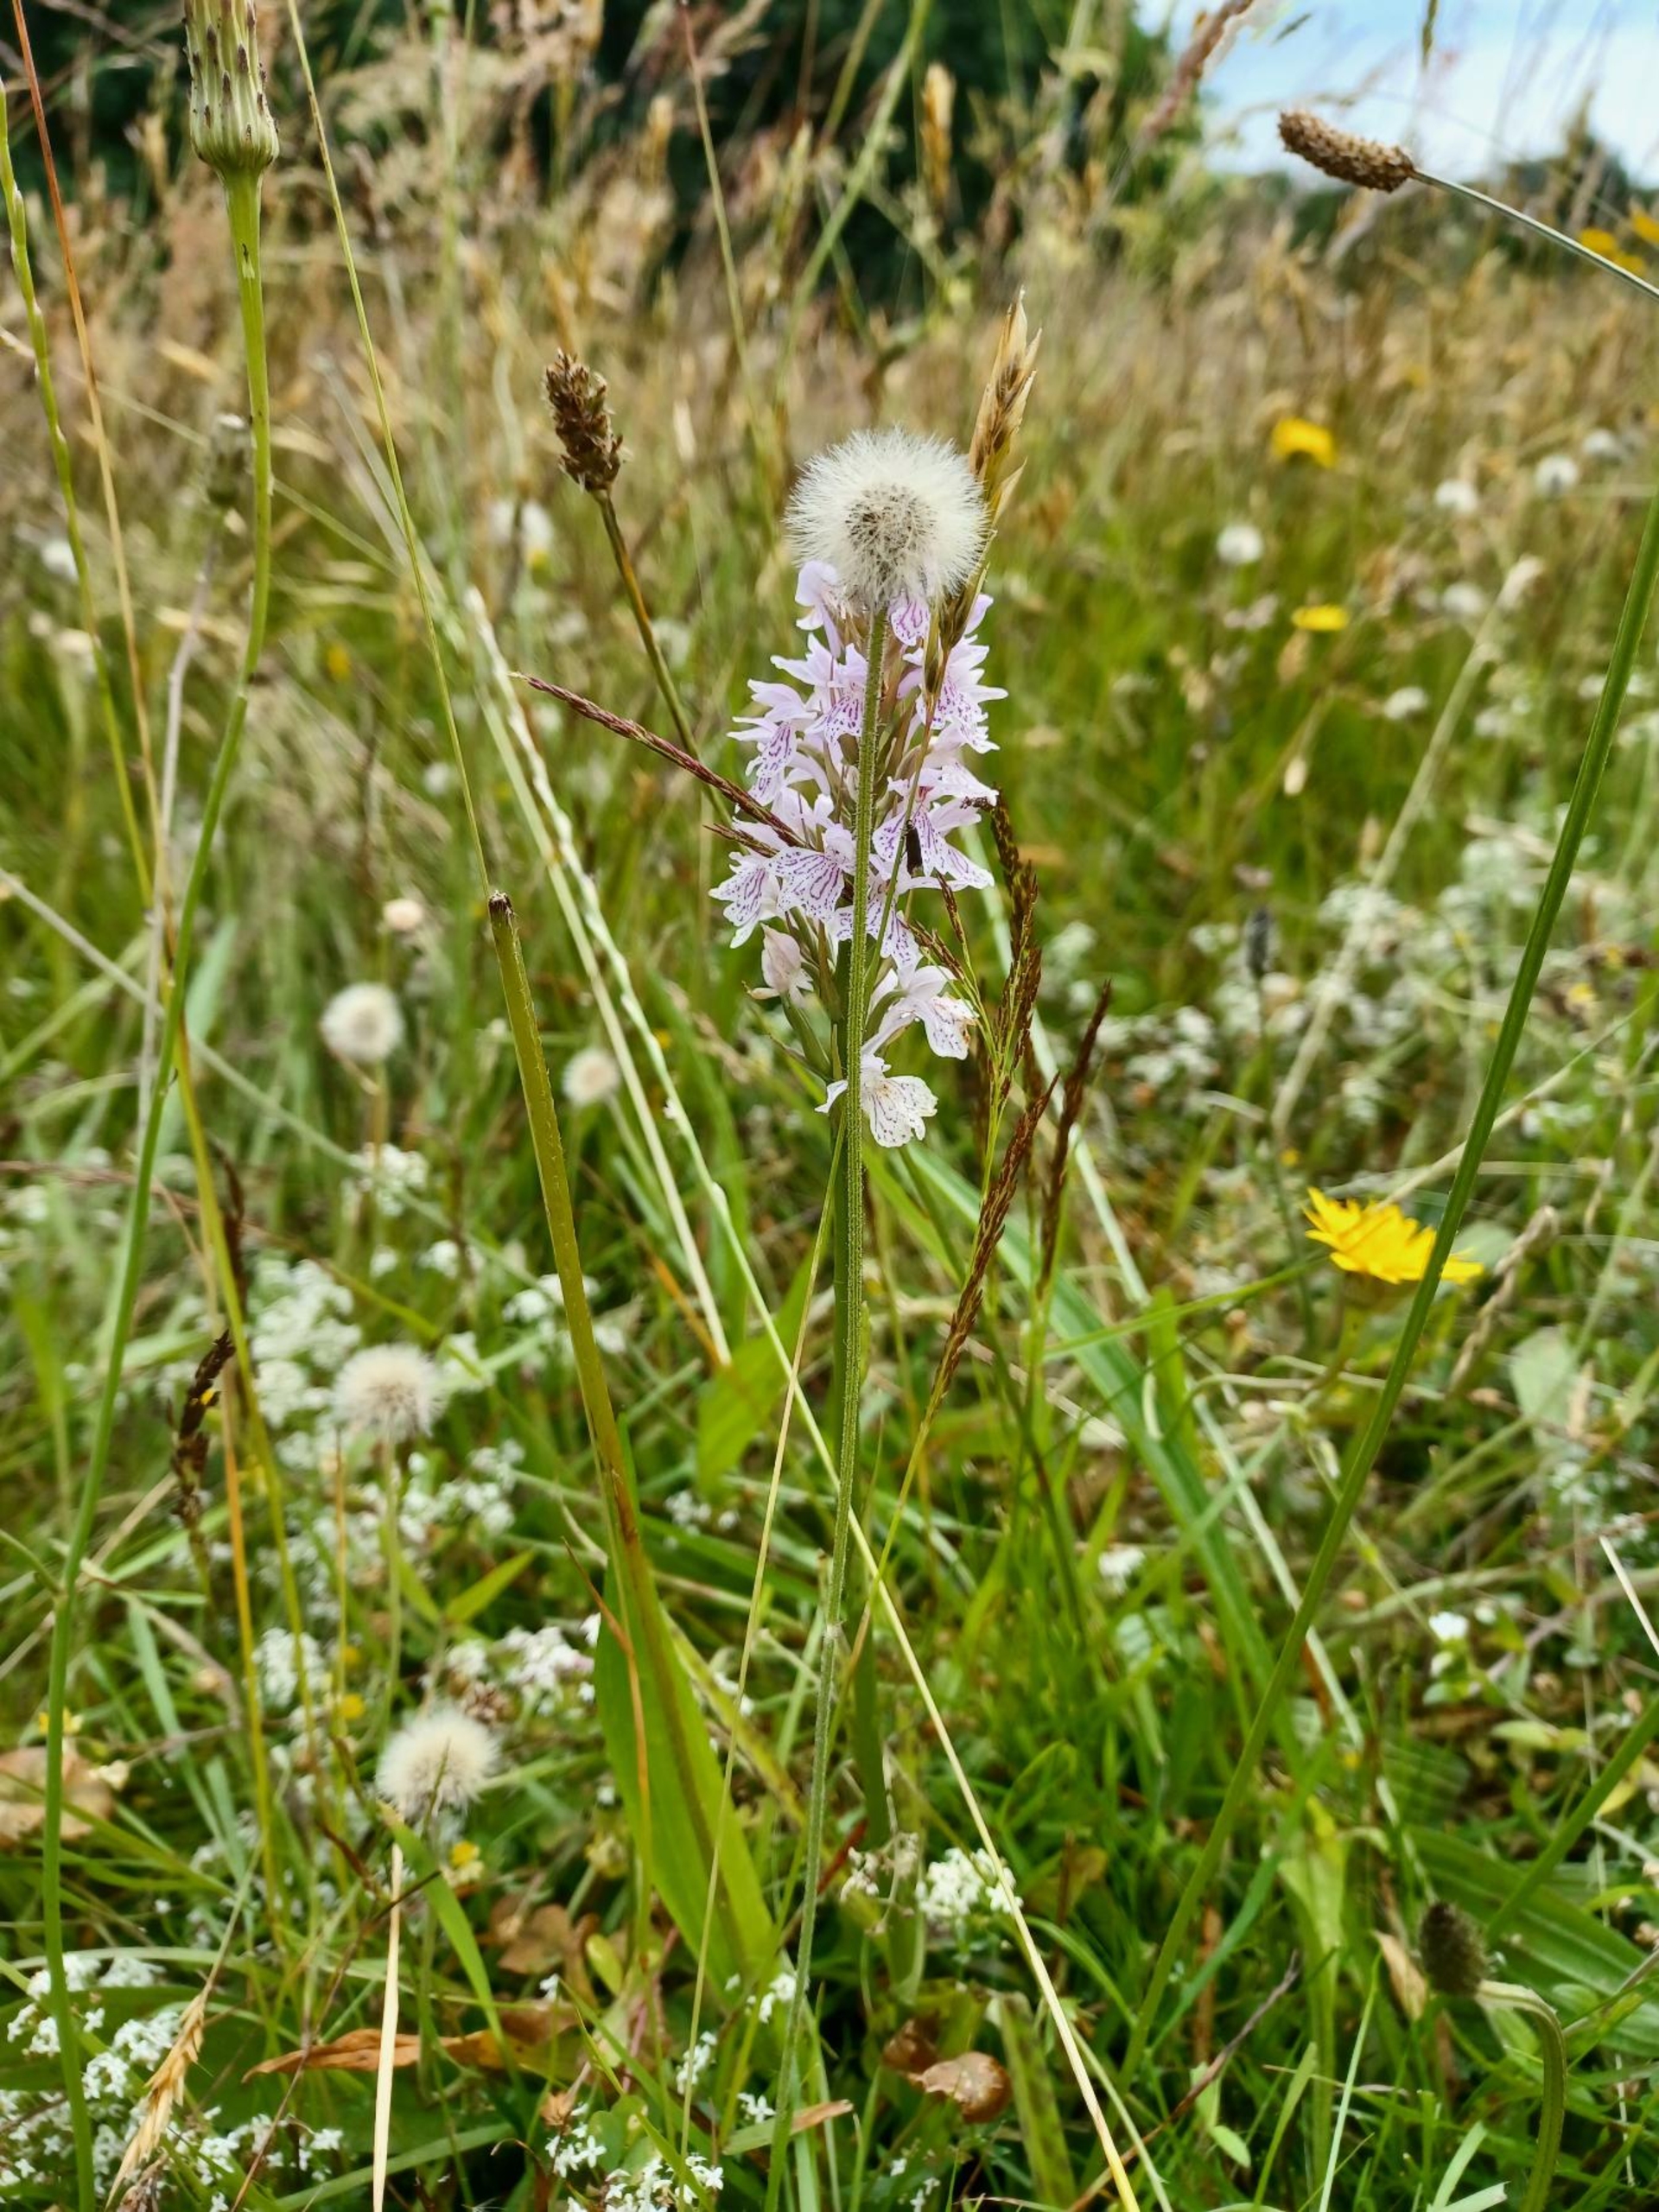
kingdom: Plantae
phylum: Tracheophyta
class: Liliopsida
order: Asparagales
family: Orchidaceae
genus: Dactylorhiza
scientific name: Dactylorhiza maculata
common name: Plettet gøgeurt
